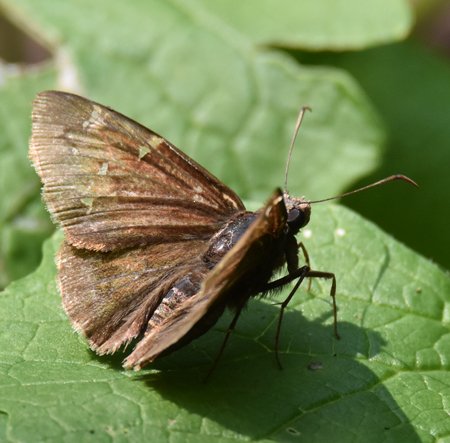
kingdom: Animalia
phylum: Arthropoda
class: Insecta
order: Lepidoptera
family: Hesperiidae
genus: Autochton
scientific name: Autochton
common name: Northern Cloudywing
